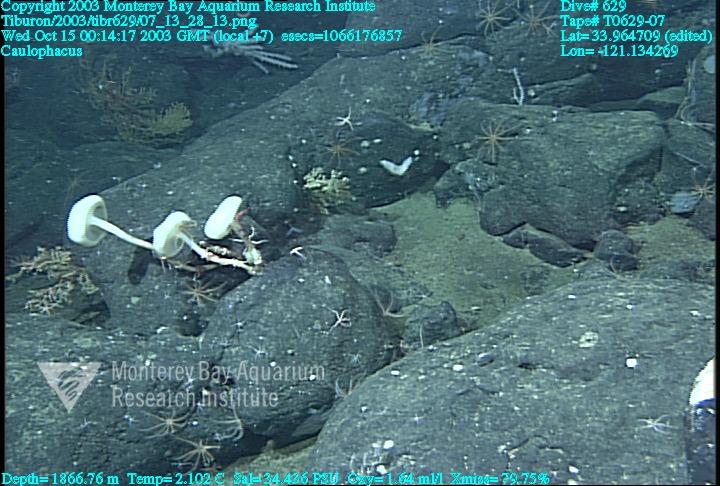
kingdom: Animalia
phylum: Porifera
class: Hexactinellida
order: Lyssacinosida
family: Rossellidae
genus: Caulophacus
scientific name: Caulophacus
